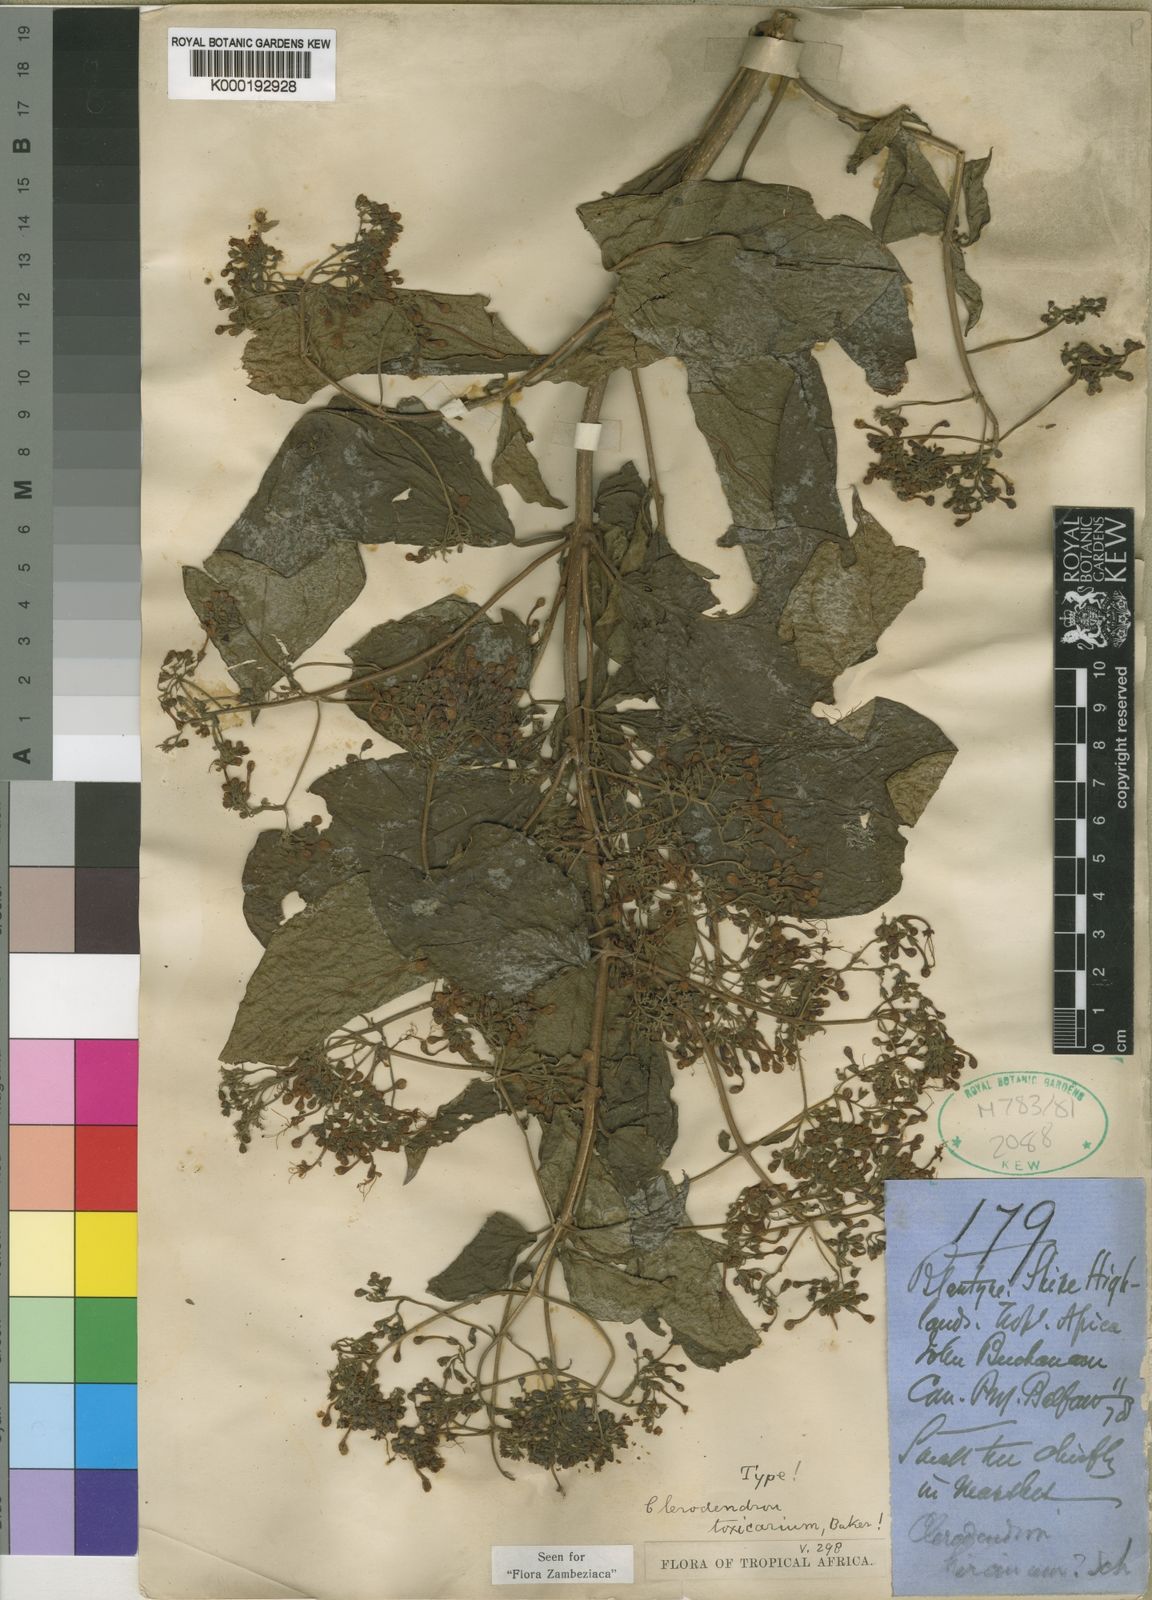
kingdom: Plantae
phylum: Tracheophyta
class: Magnoliopsida
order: Lamiales
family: Lamiaceae
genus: Clerodendrum
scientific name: Clerodendrum toxicarium
